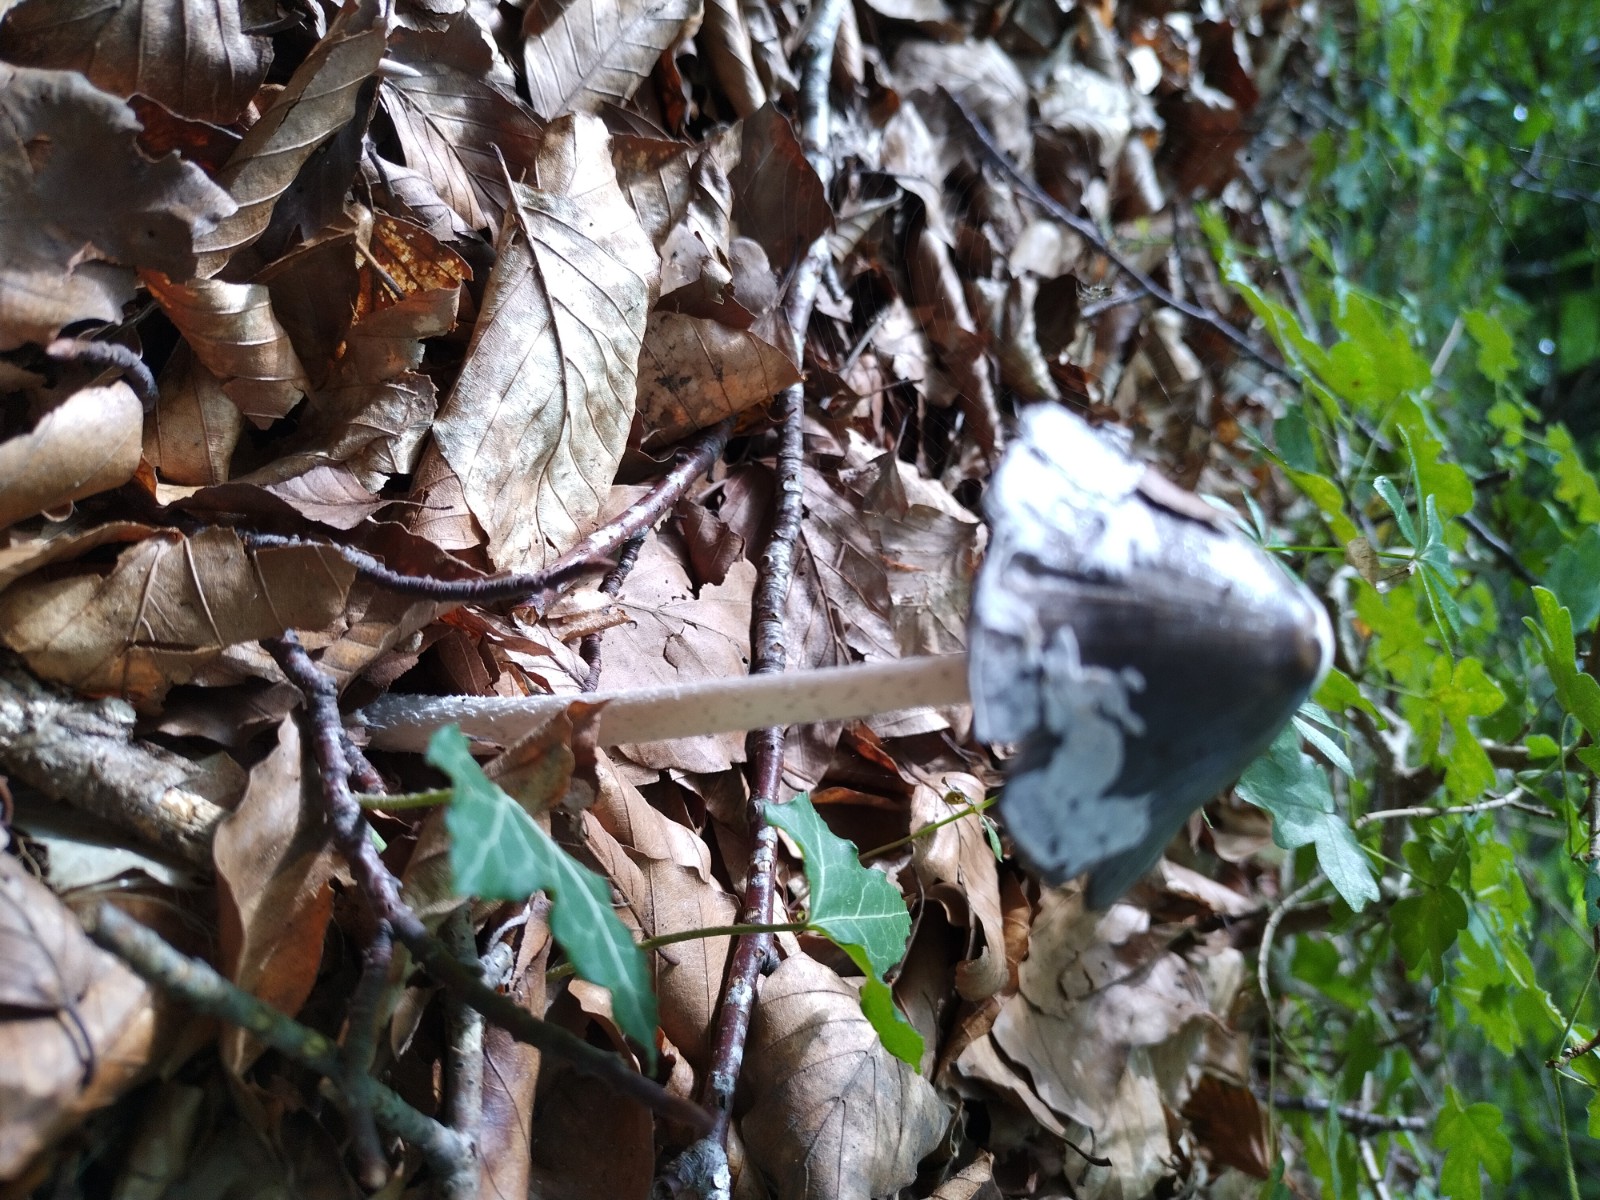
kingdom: Fungi
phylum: Basidiomycota
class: Agaricomycetes
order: Agaricales
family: Psathyrellaceae
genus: Coprinopsis
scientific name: Coprinopsis picacea
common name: skade-blækhat
